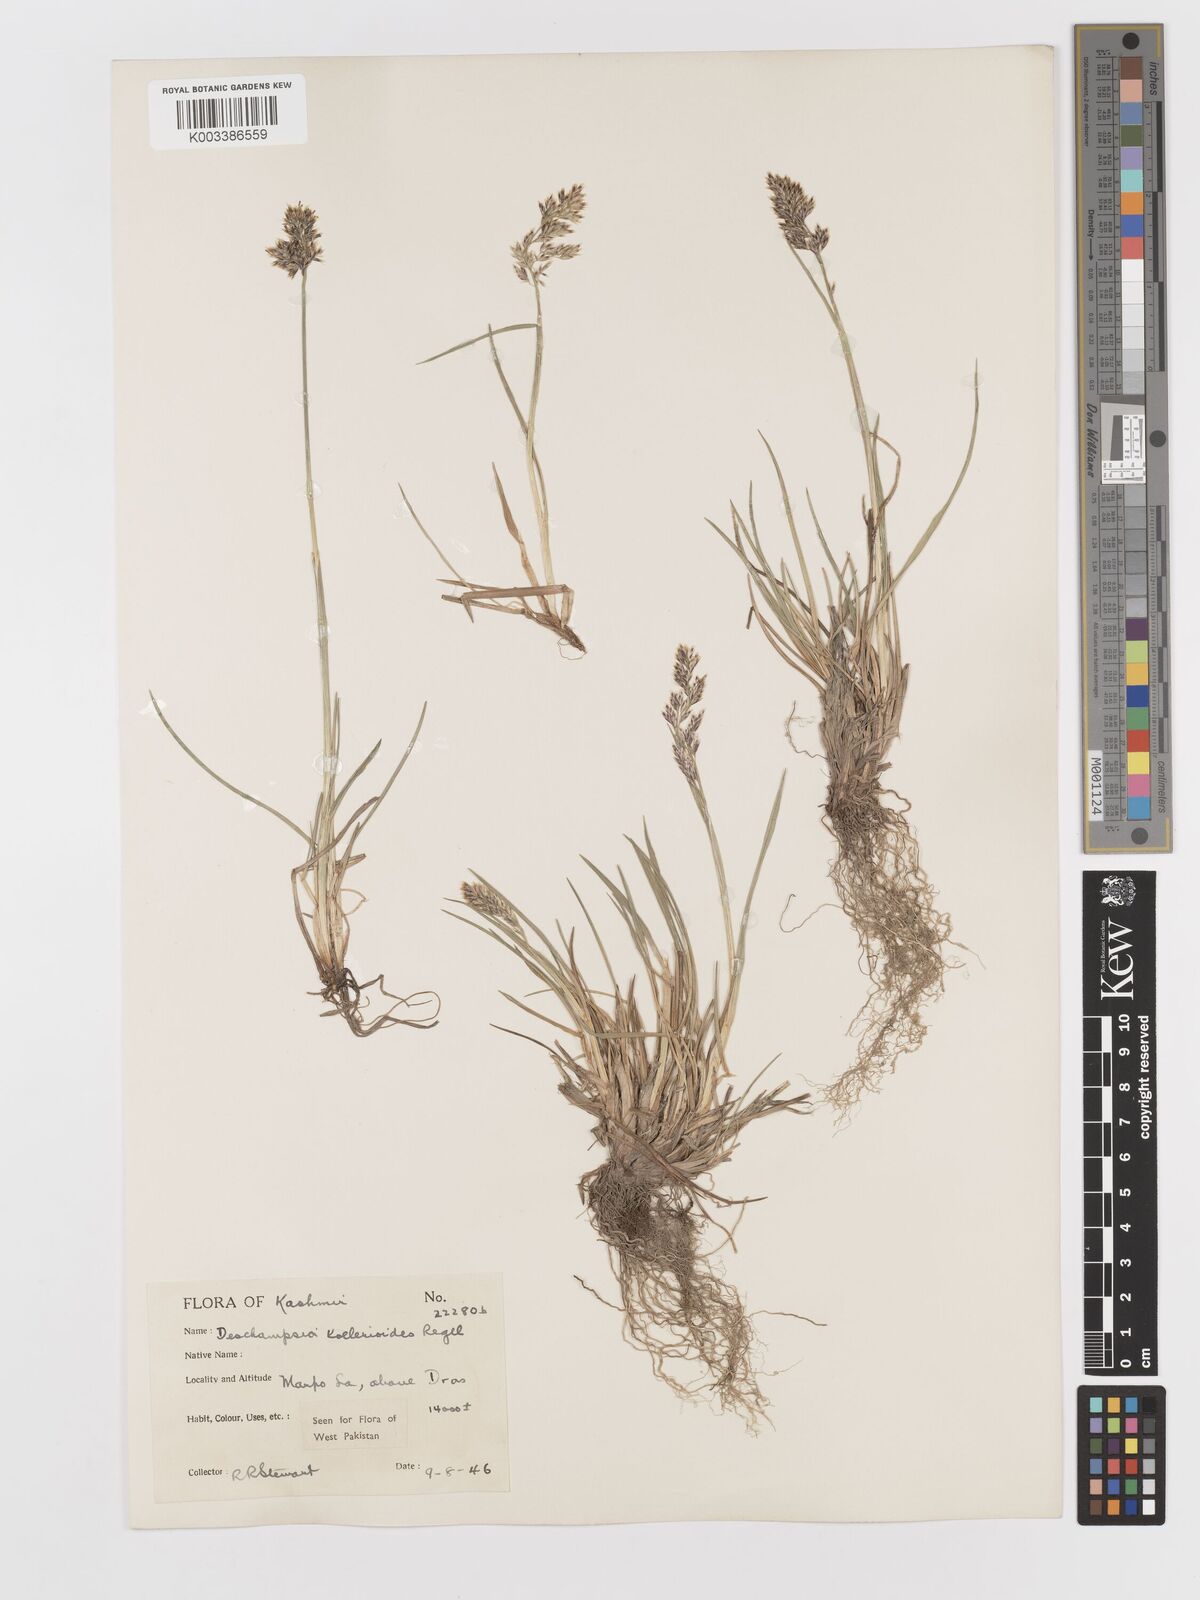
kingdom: Plantae
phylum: Tracheophyta
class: Liliopsida
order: Poales
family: Poaceae
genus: Deschampsia
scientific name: Deschampsia koelerioides
